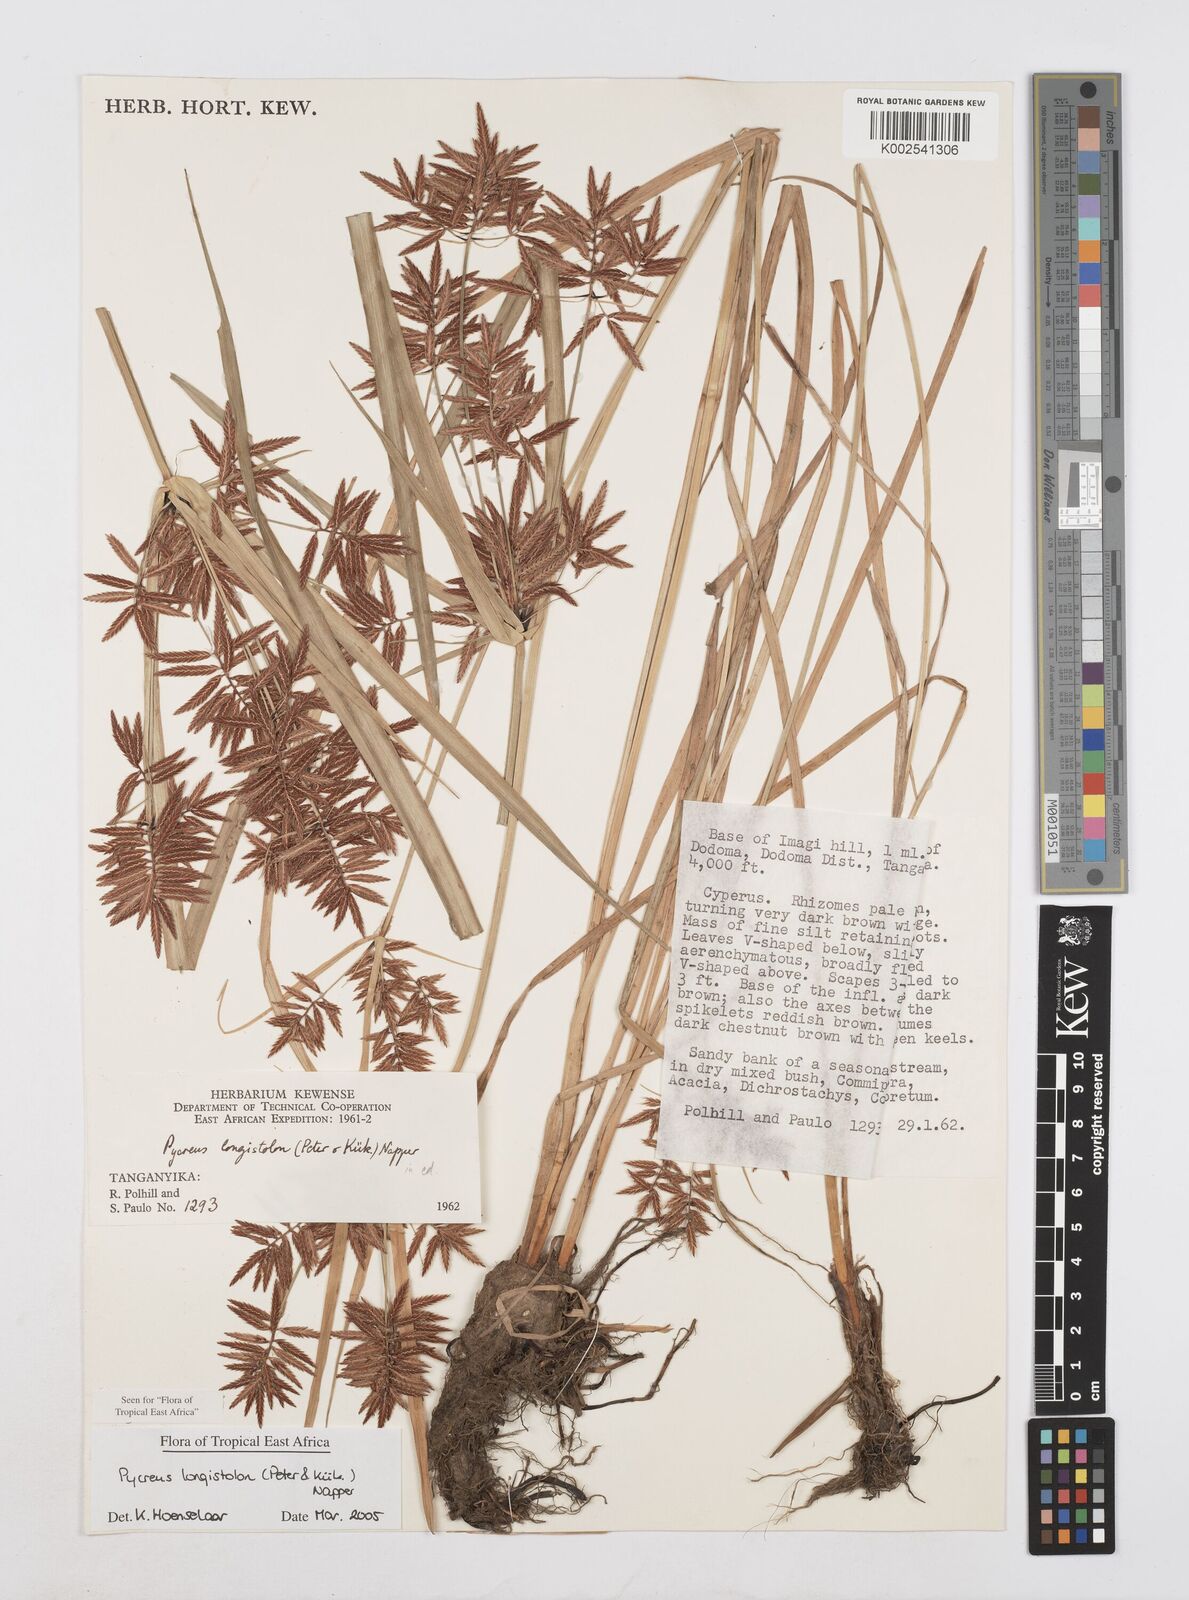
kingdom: Plantae
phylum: Tracheophyta
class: Liliopsida
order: Poales
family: Cyperaceae
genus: Cyperus
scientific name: Cyperus chrysanthus
